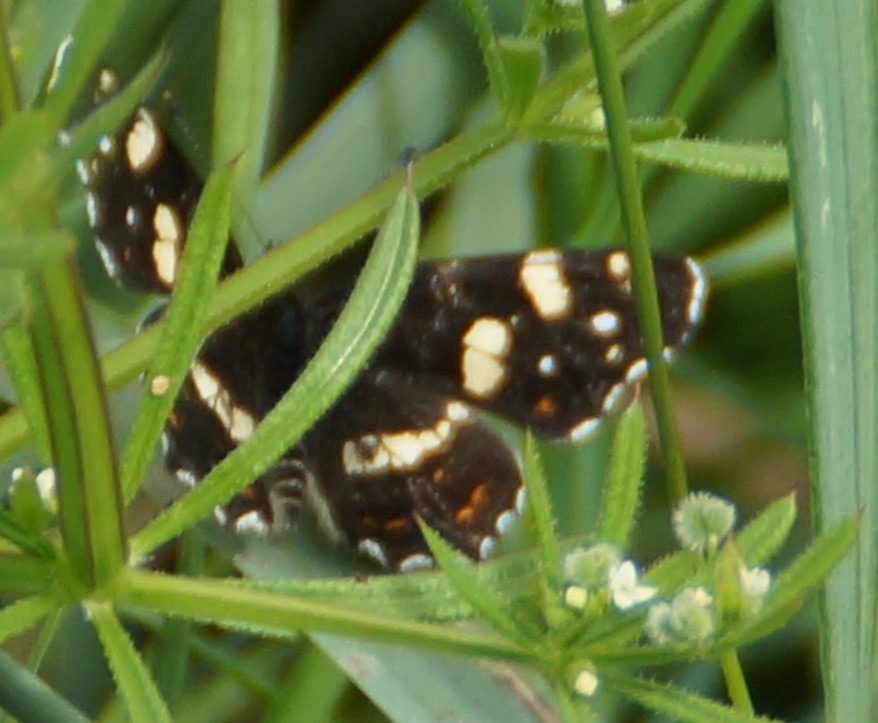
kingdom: Animalia
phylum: Arthropoda
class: Insecta
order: Lepidoptera
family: Nymphalidae
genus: Araschnia
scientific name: Araschnia levana
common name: Nældesommerfugl
